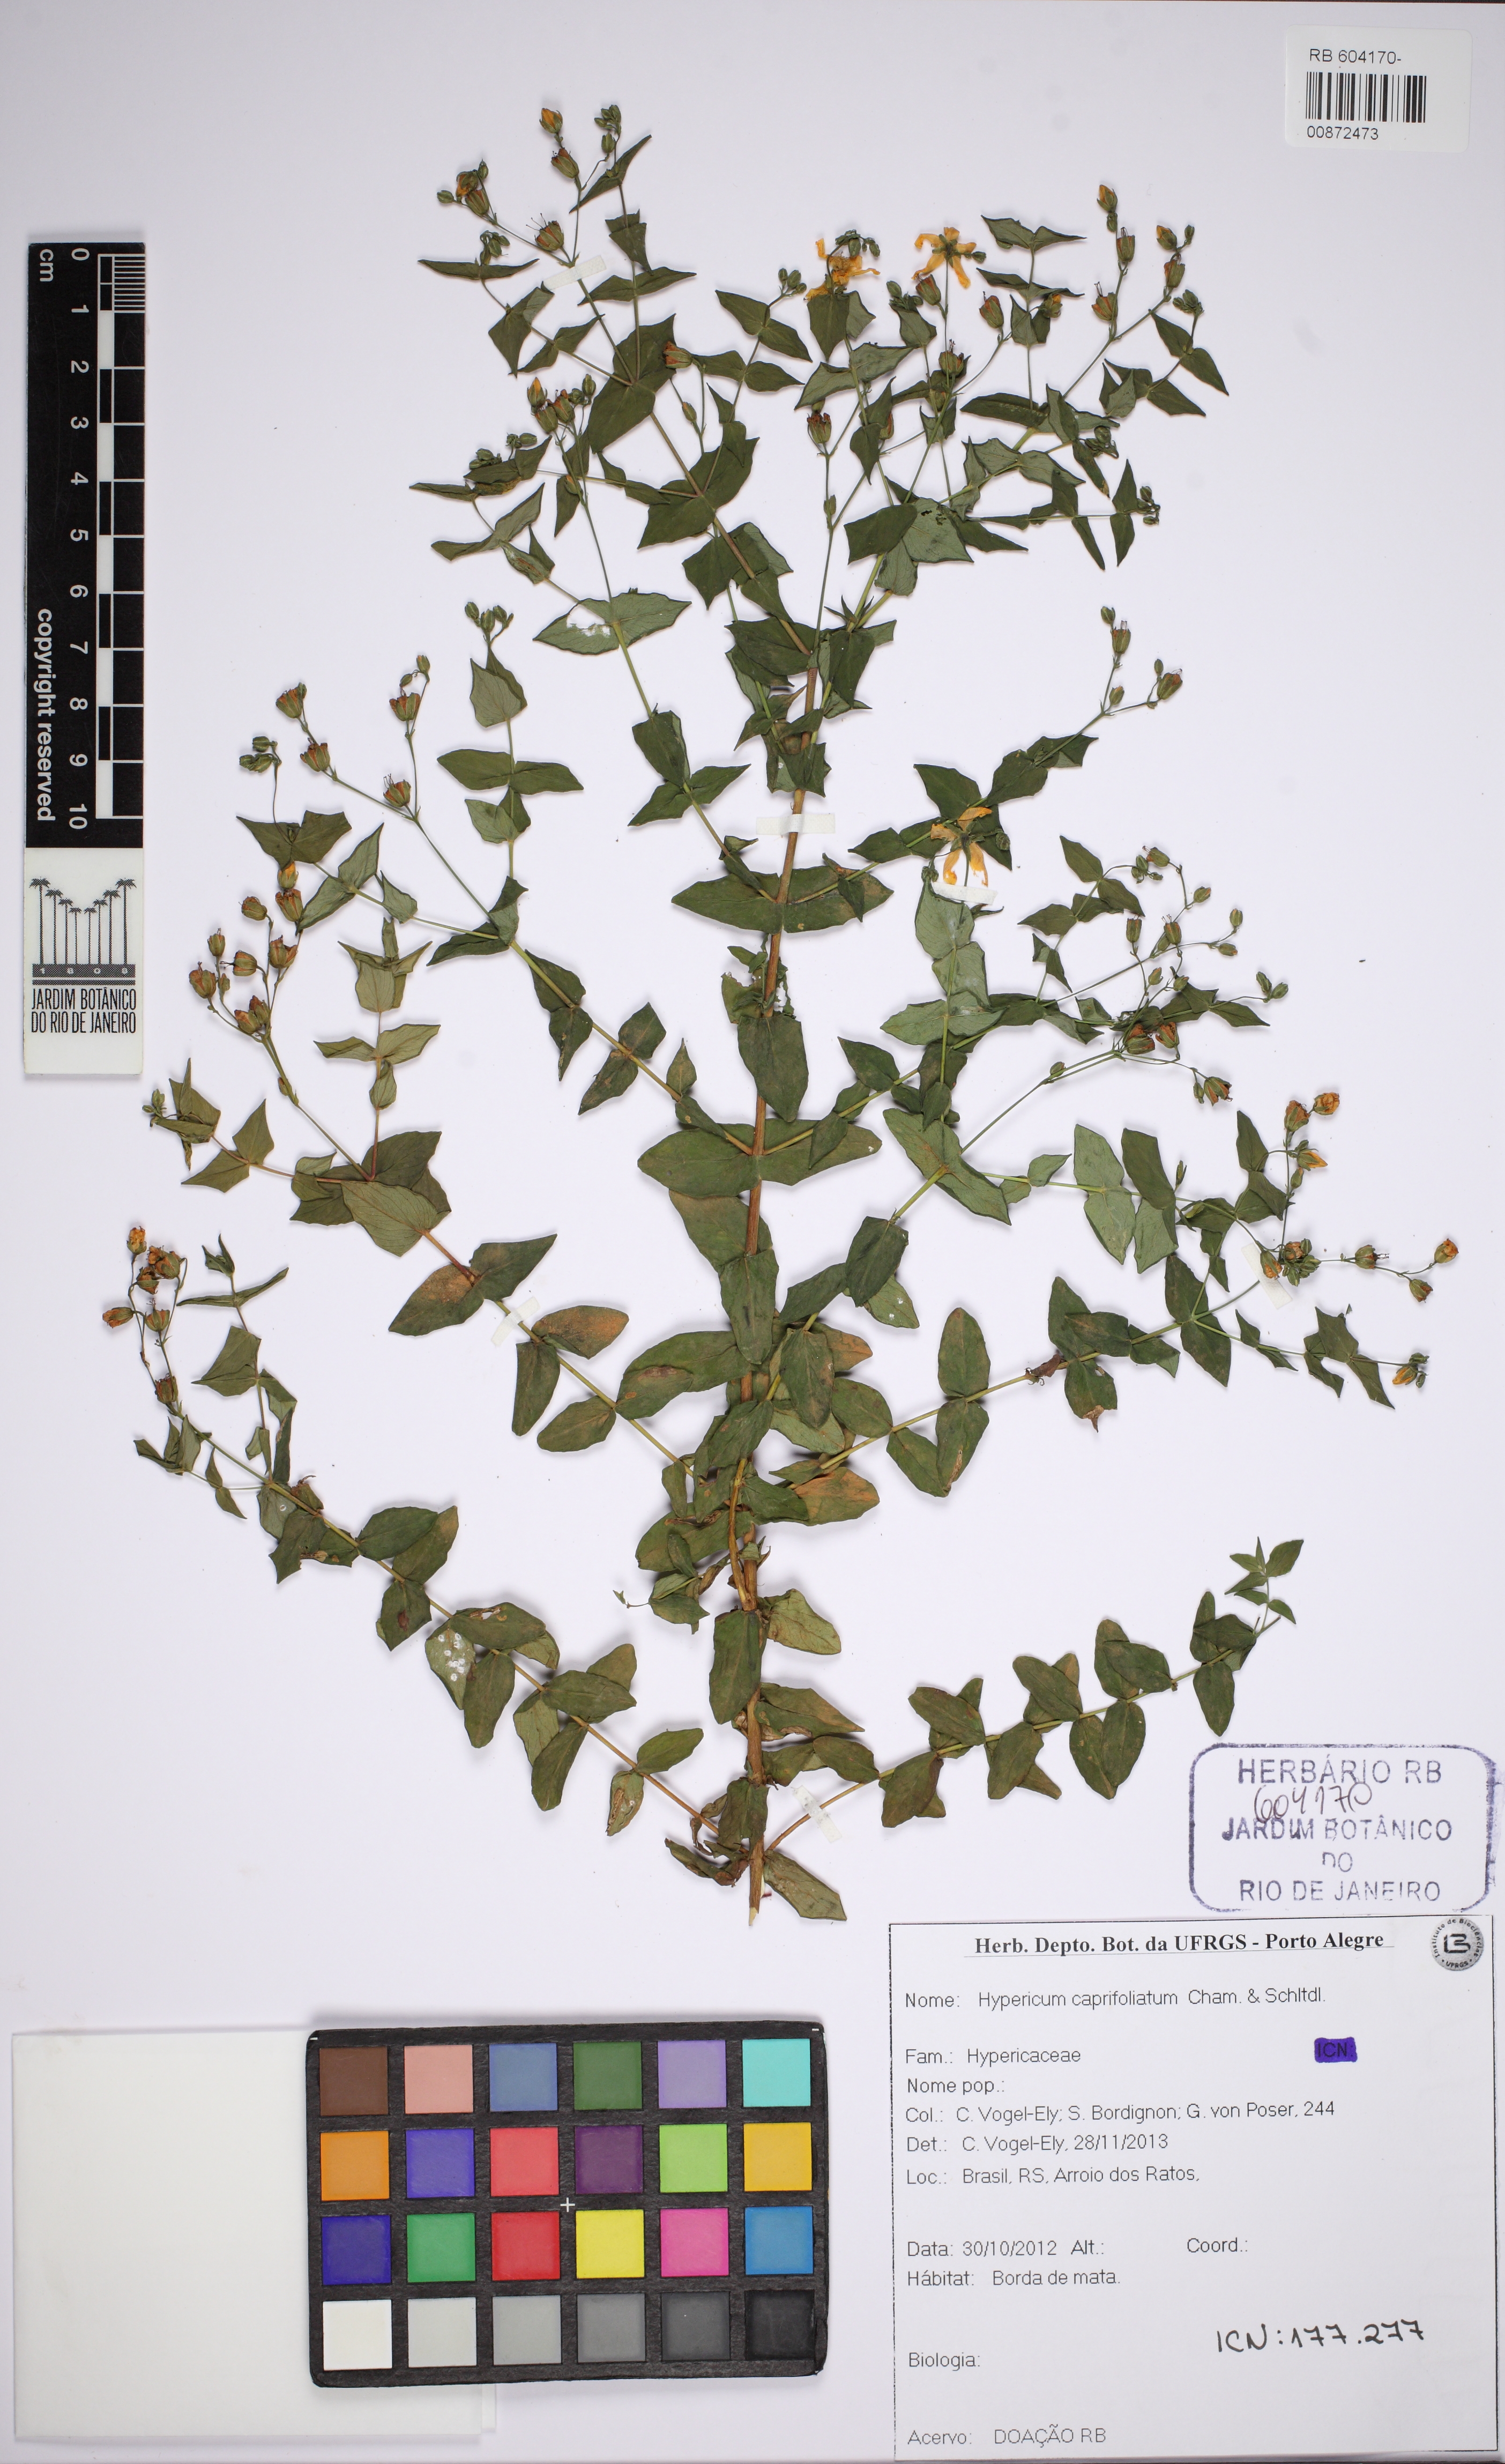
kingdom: Plantae
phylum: Tracheophyta
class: Magnoliopsida
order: Malpighiales
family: Hypericaceae
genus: Hypericum
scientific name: Hypericum caprifoliatum
